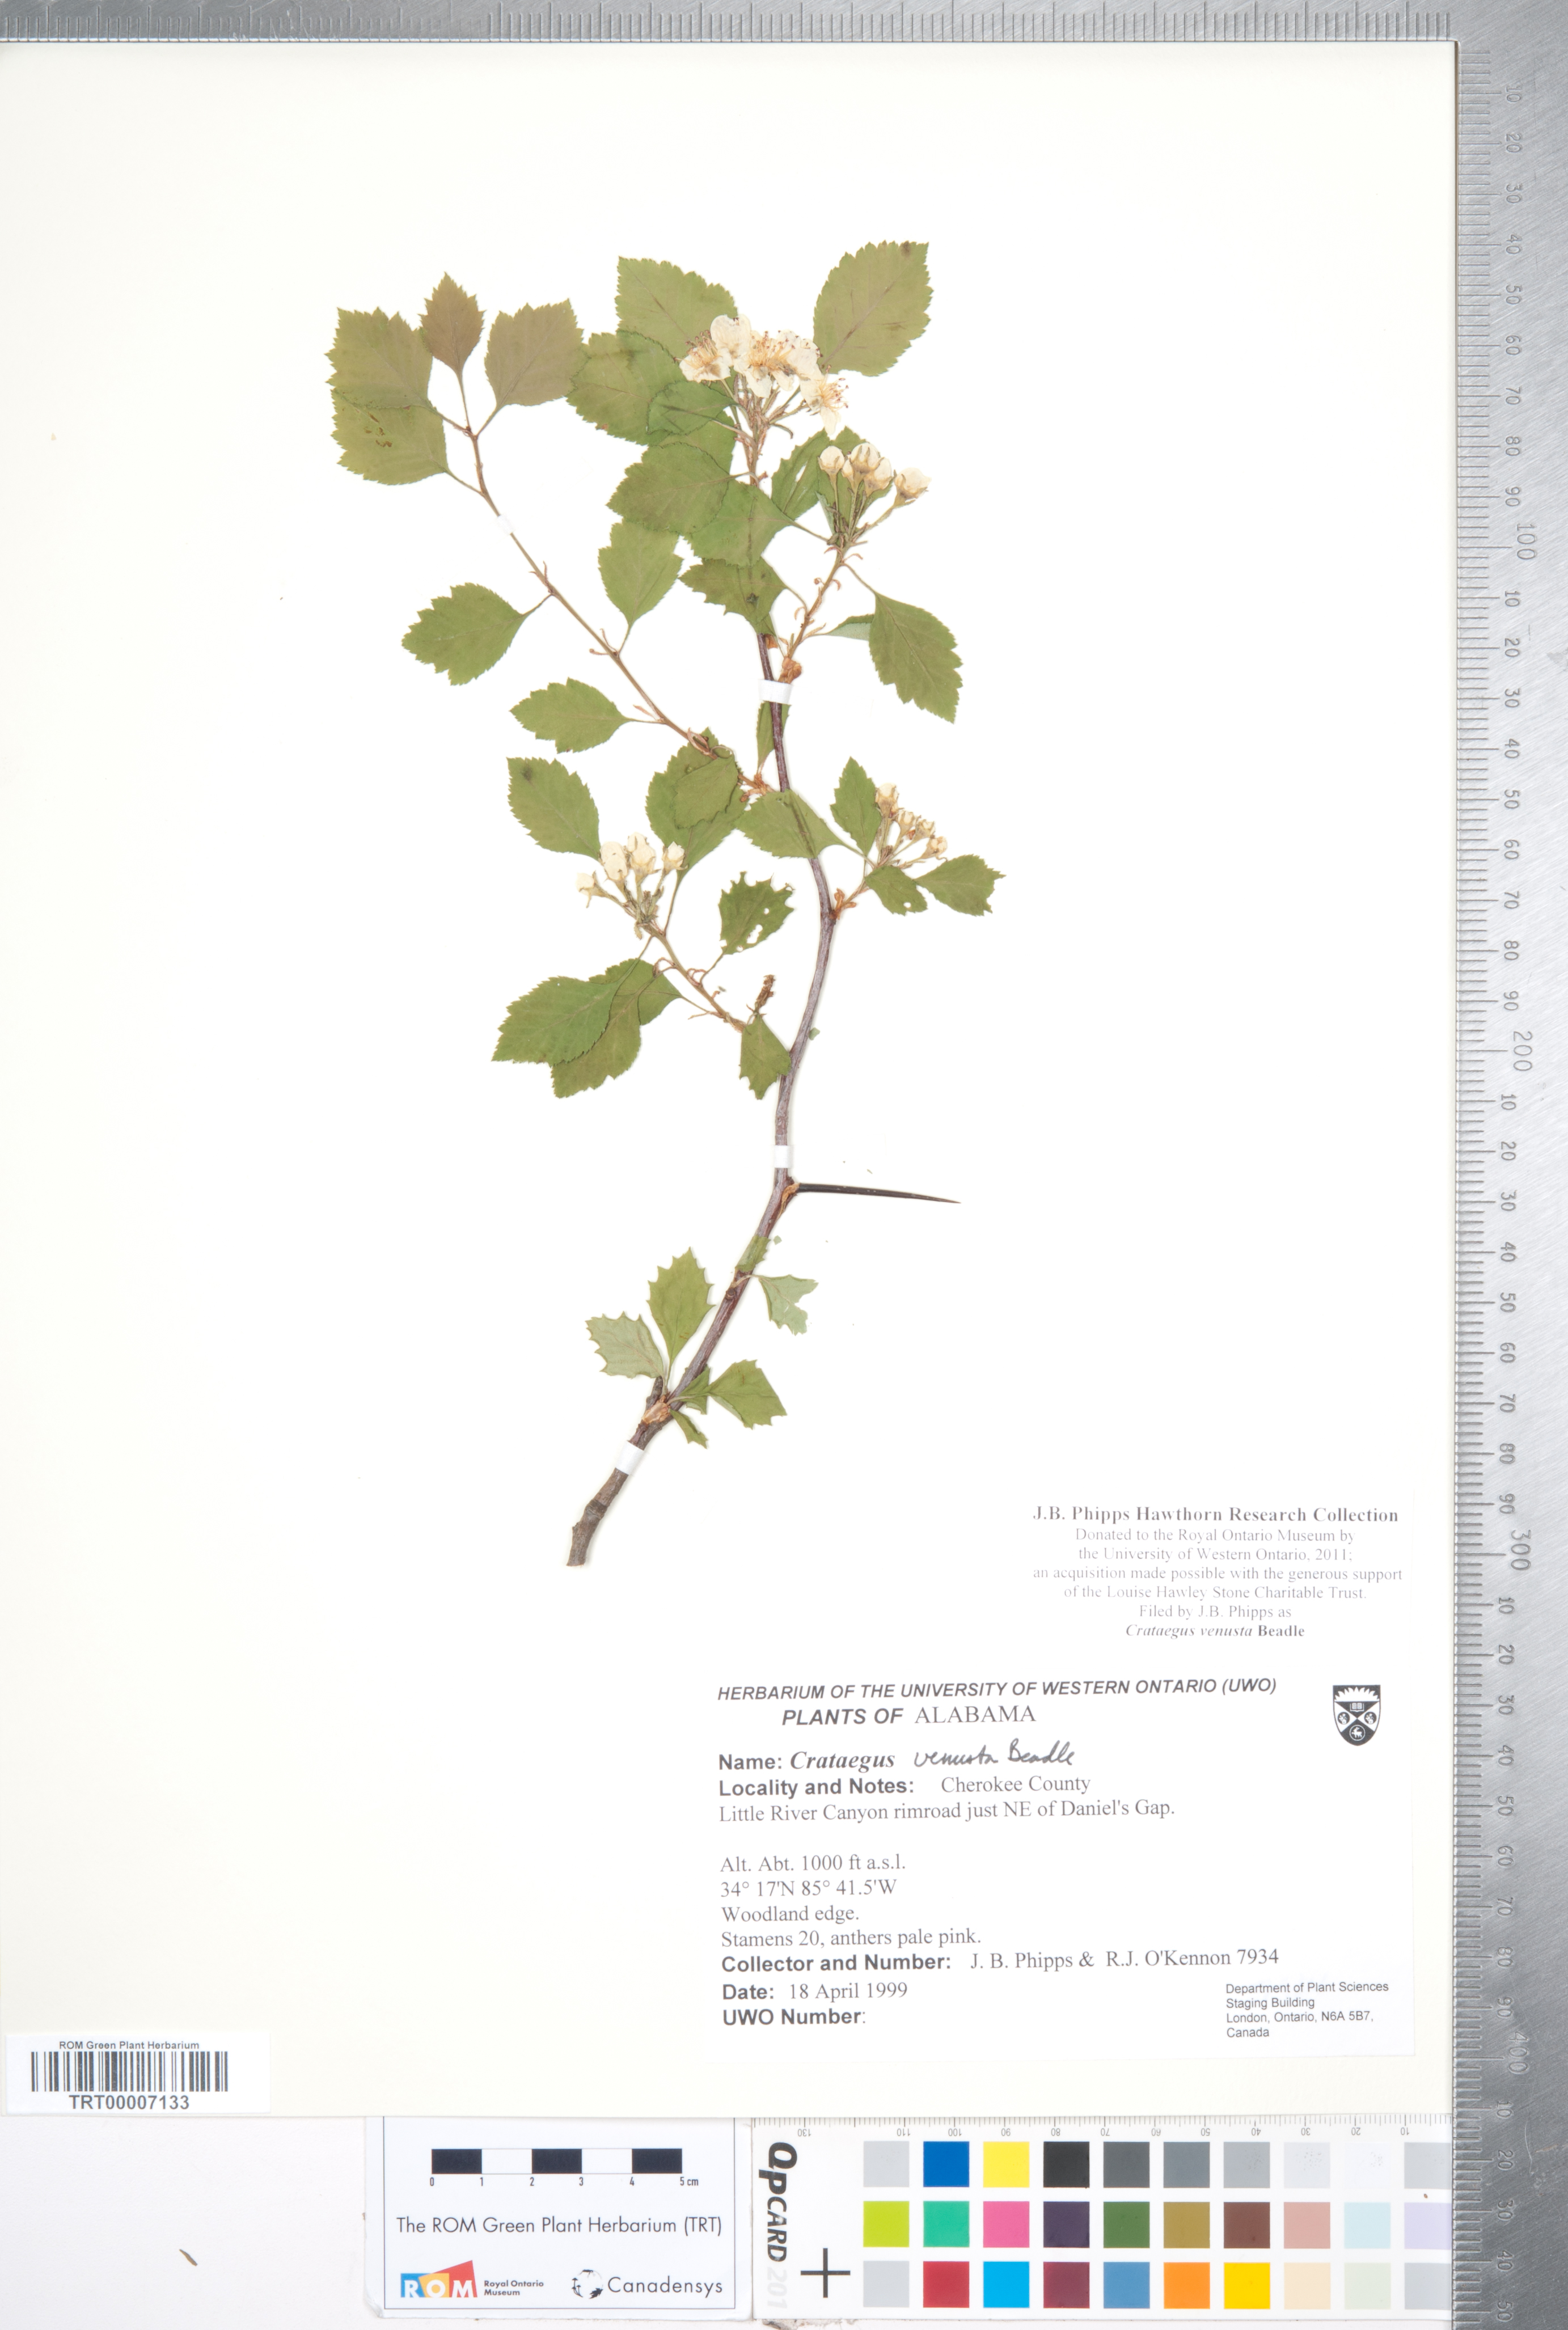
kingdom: Plantae
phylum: Tracheophyta
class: Magnoliopsida
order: Rosales
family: Rosaceae
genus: Crataegus
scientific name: Crataegus venusta
